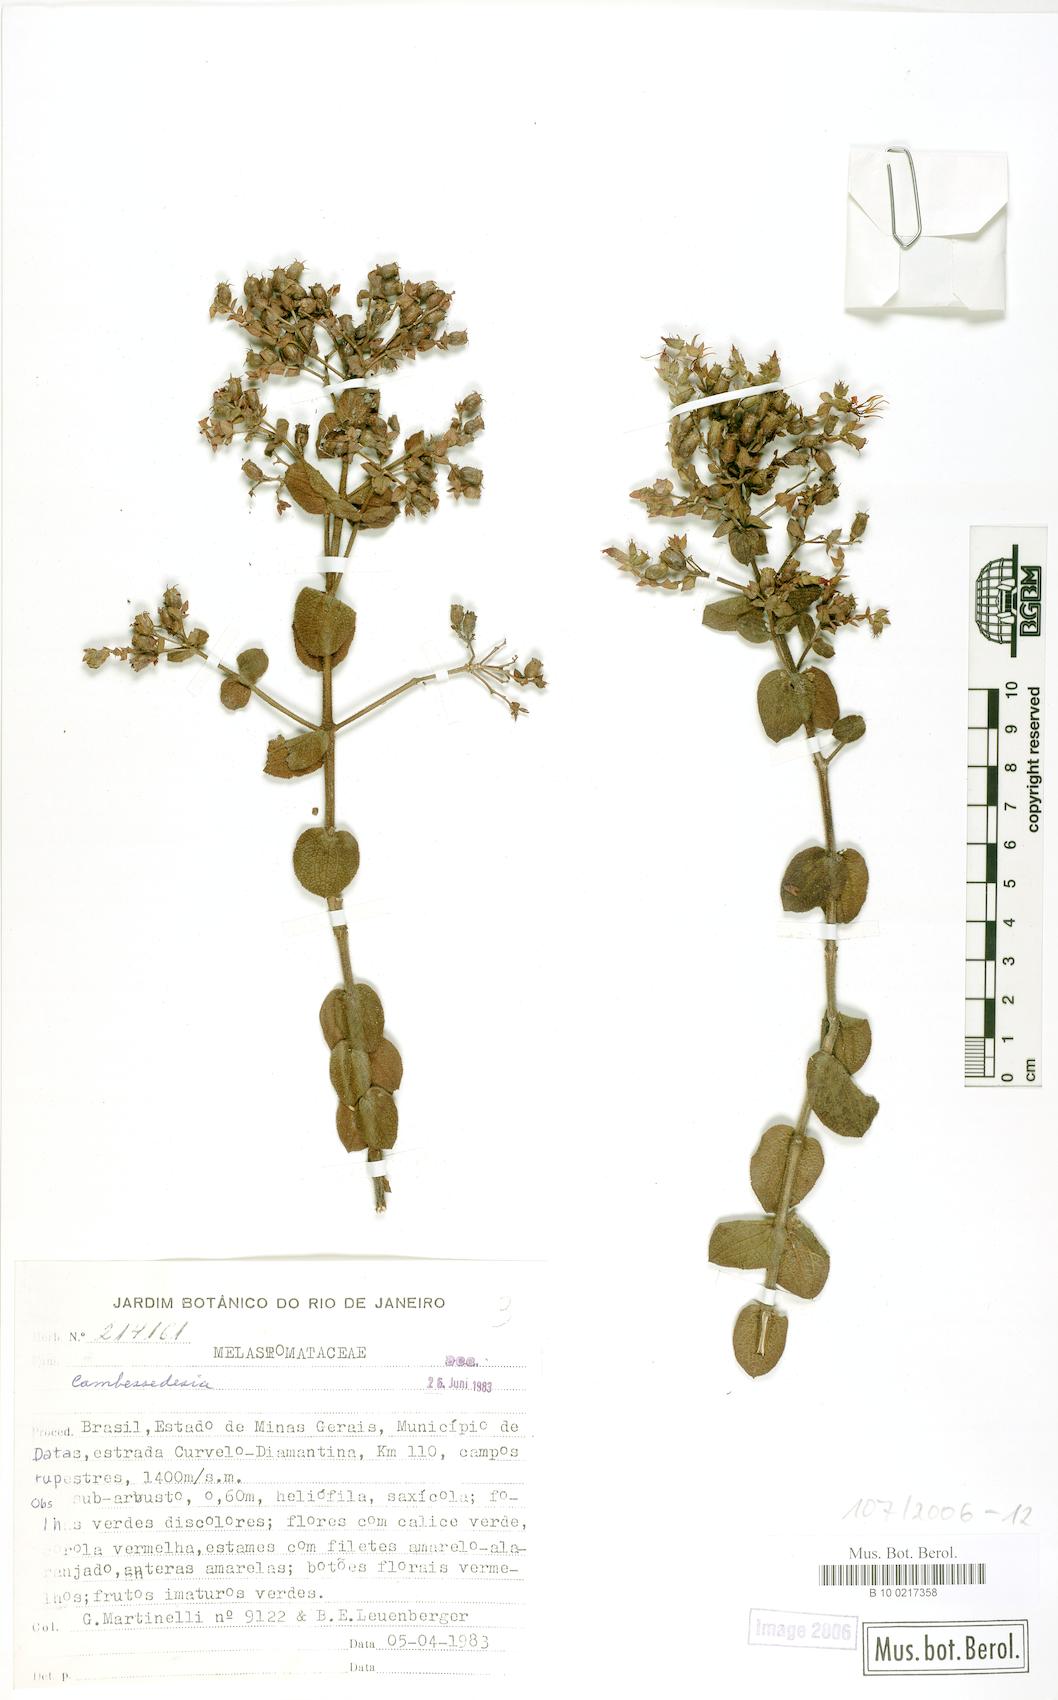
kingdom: Plantae
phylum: Tracheophyta
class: Magnoliopsida
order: Myrtales
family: Melastomataceae
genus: Cambessedesia
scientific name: Cambessedesia
